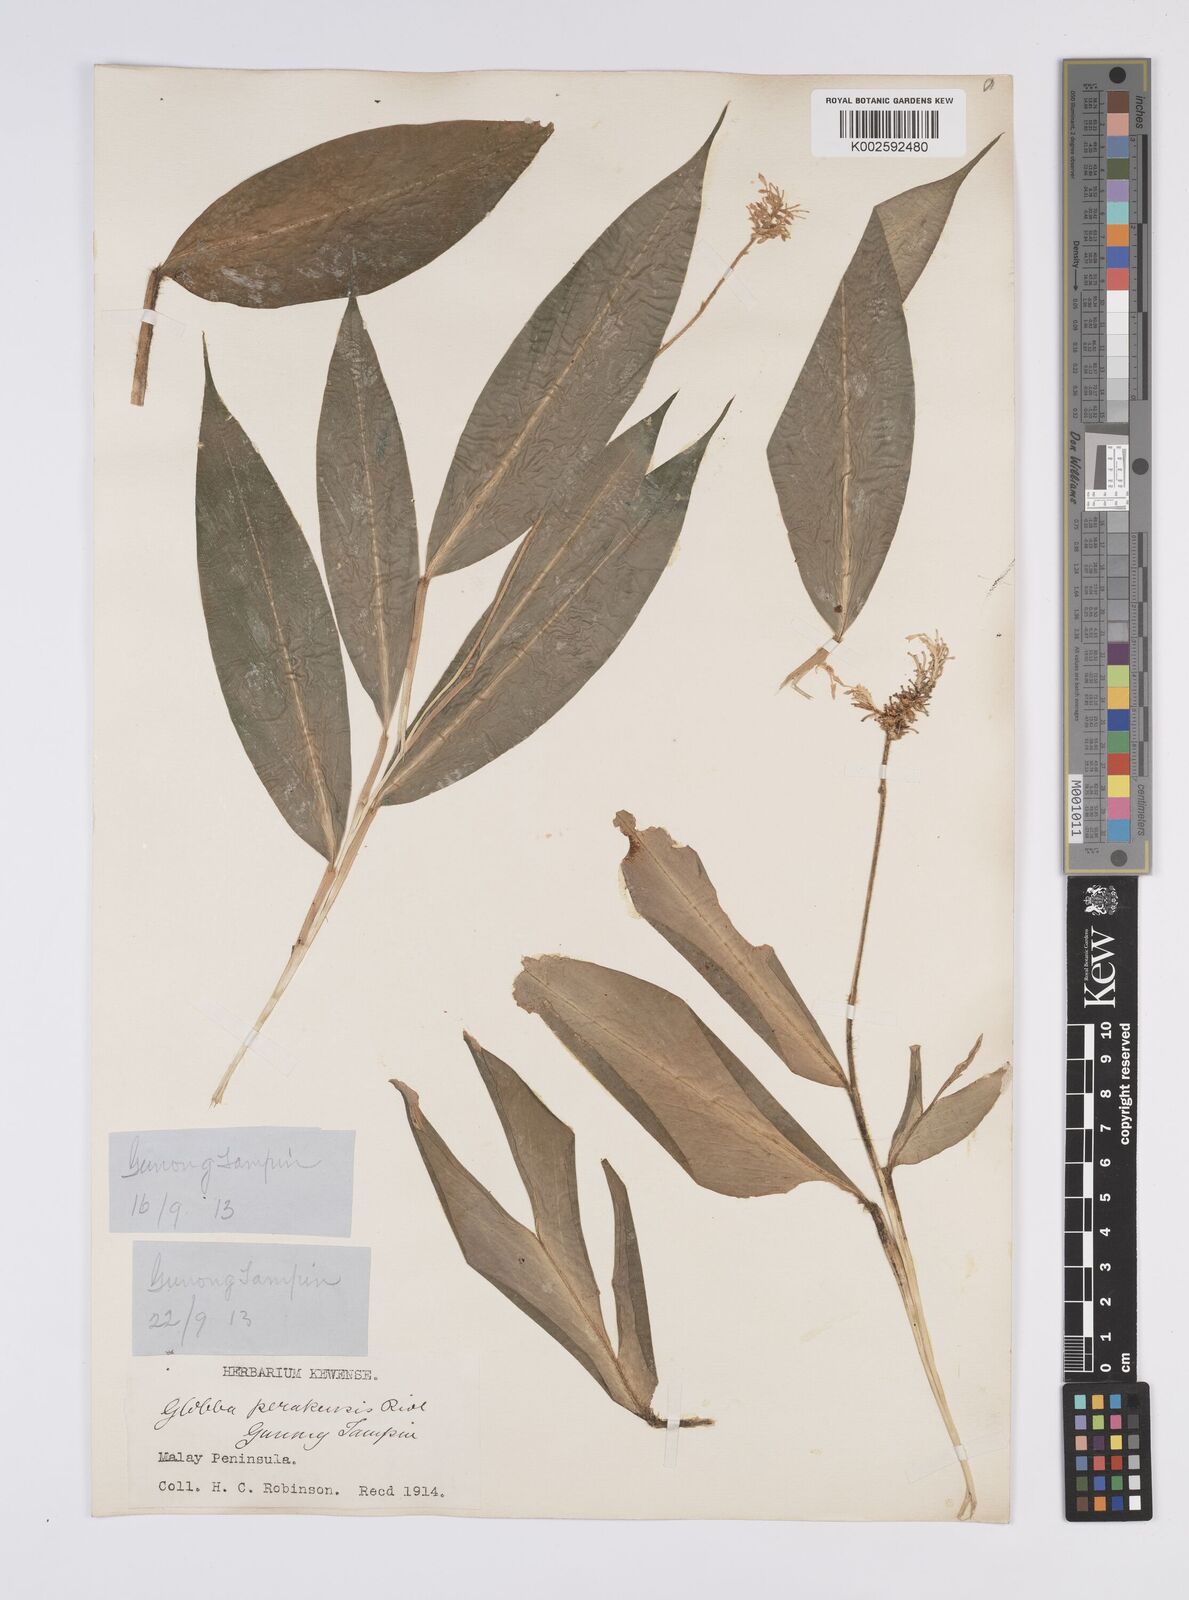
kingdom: Plantae
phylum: Tracheophyta
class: Liliopsida
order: Zingiberales
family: Zingiberaceae
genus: Globba
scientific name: Globba aurantiaca
